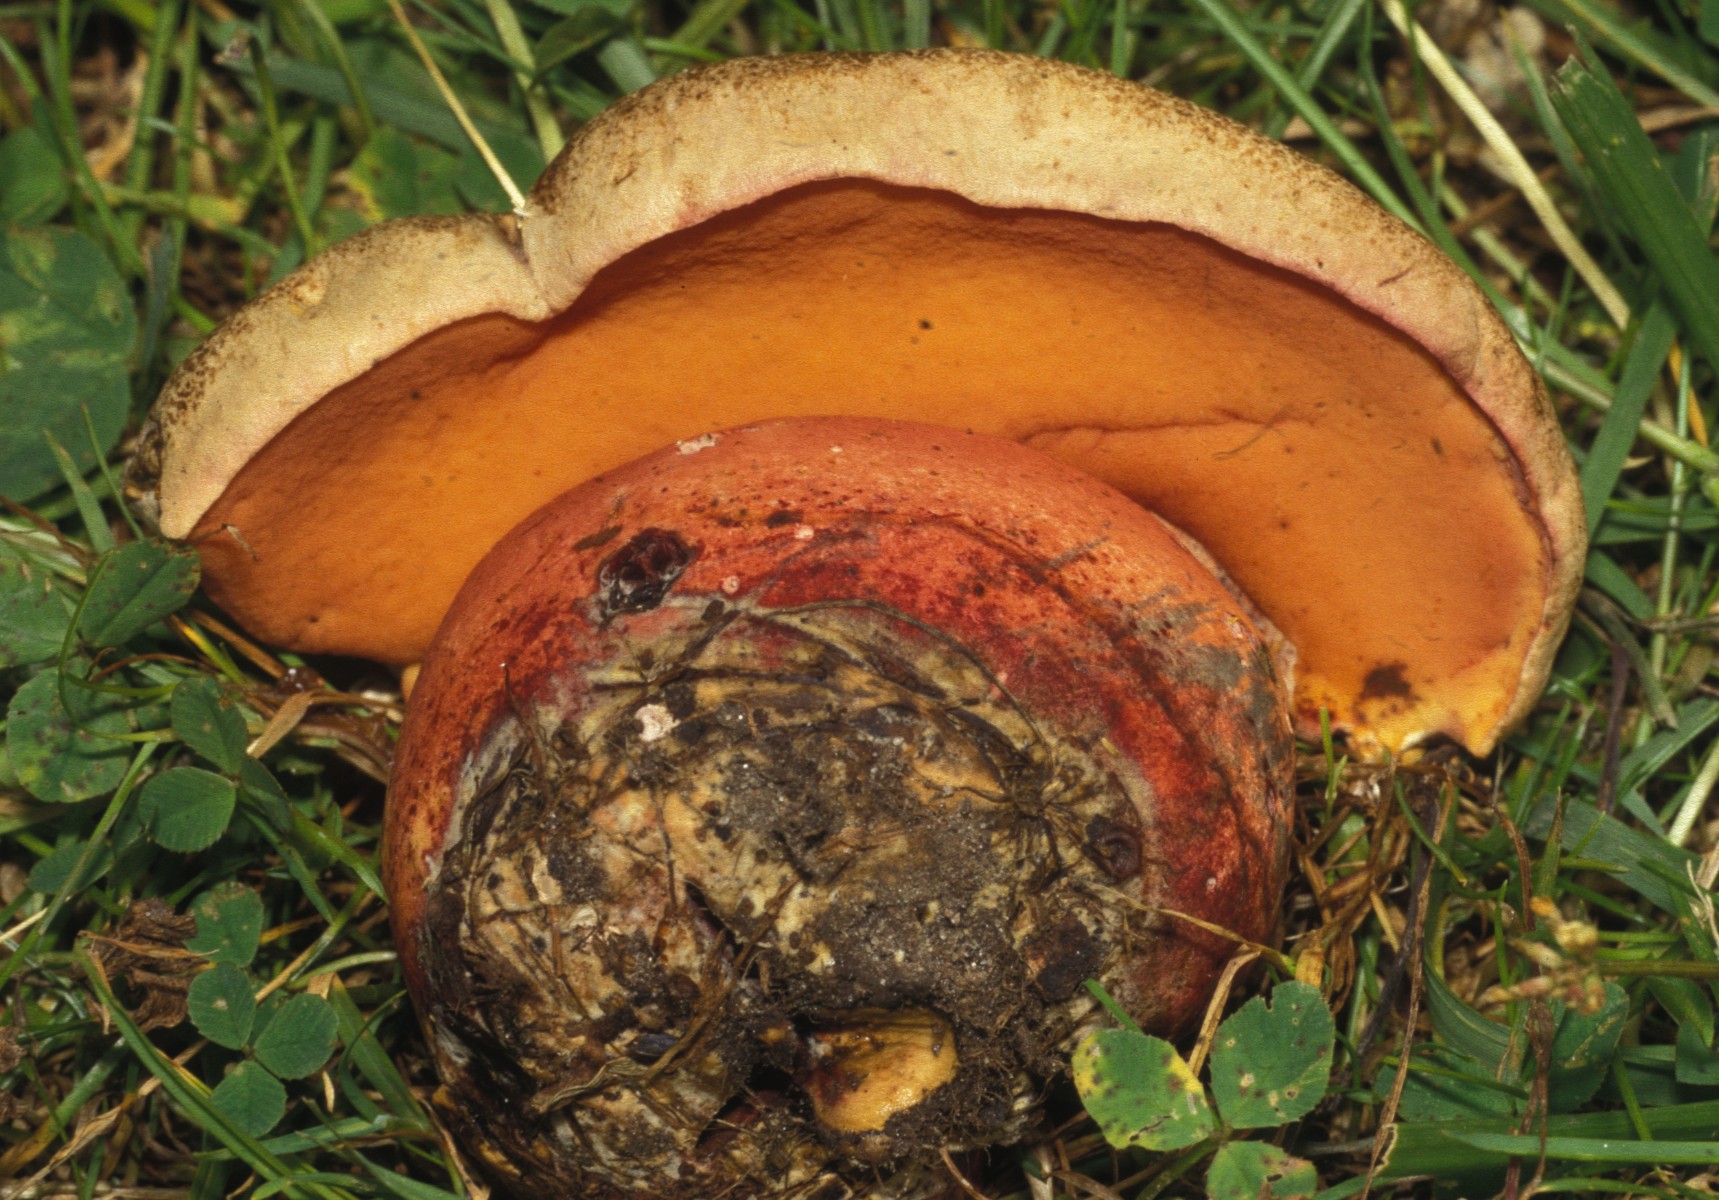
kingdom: Fungi
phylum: Basidiomycota
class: Agaricomycetes
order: Boletales
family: Boletaceae
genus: Rubroboletus
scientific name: Rubroboletus legaliae
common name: djævle-rørhat
